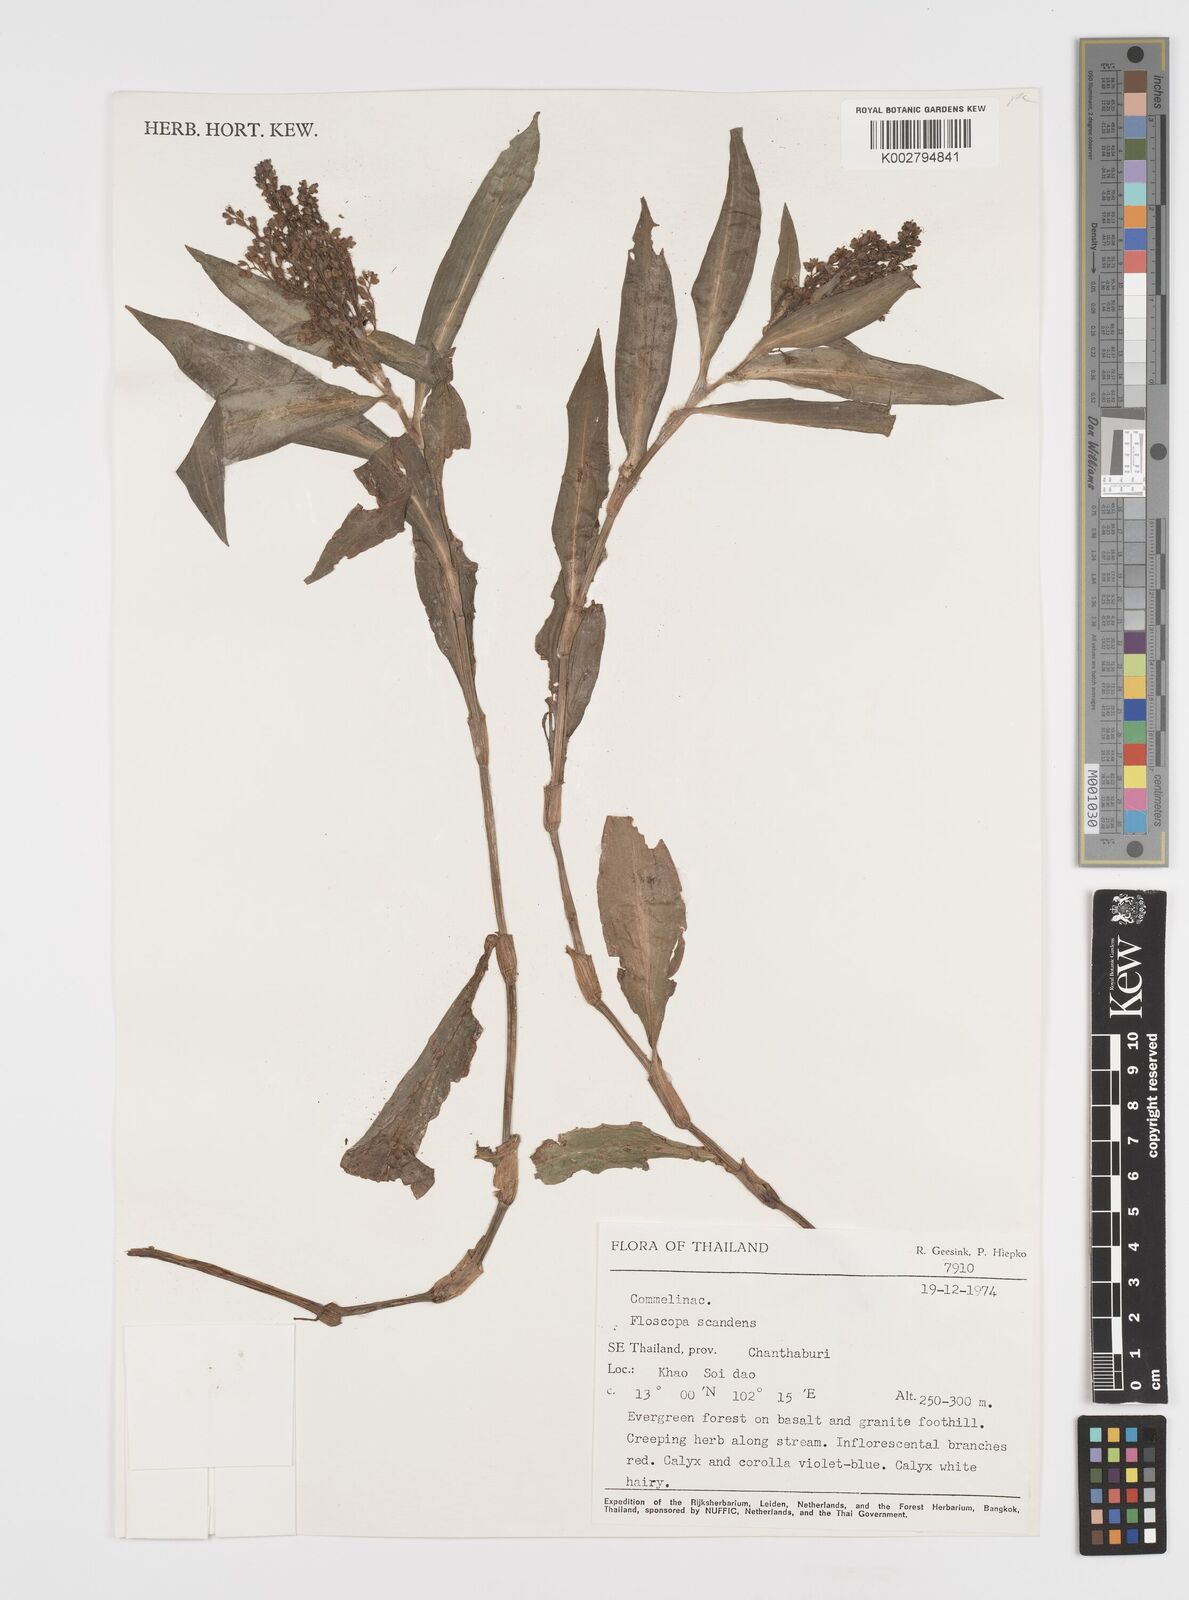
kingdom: Plantae
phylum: Tracheophyta
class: Liliopsida
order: Commelinales
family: Commelinaceae
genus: Floscopa
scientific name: Floscopa scandens
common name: Climbing flower cup
